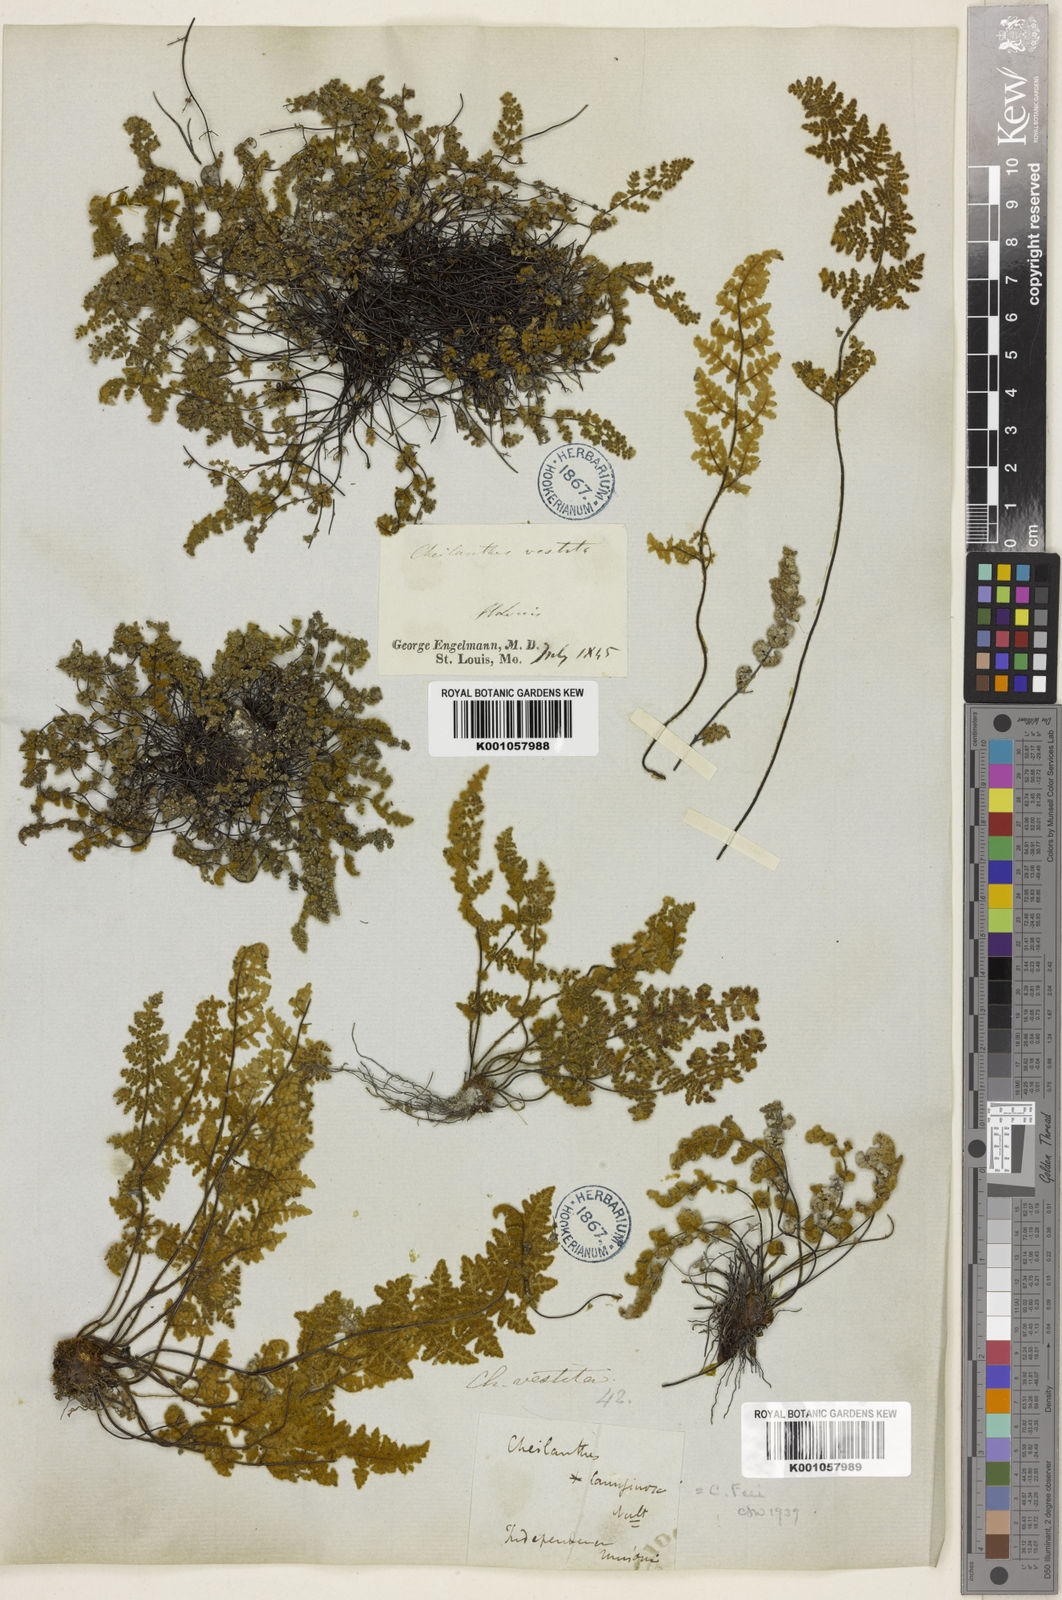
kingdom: Plantae
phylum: Tracheophyta
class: Polypodiopsida
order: Polypodiales
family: Pteridaceae
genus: Myriopteris
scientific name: Myriopteris gracilis
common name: Fee's lip fern
